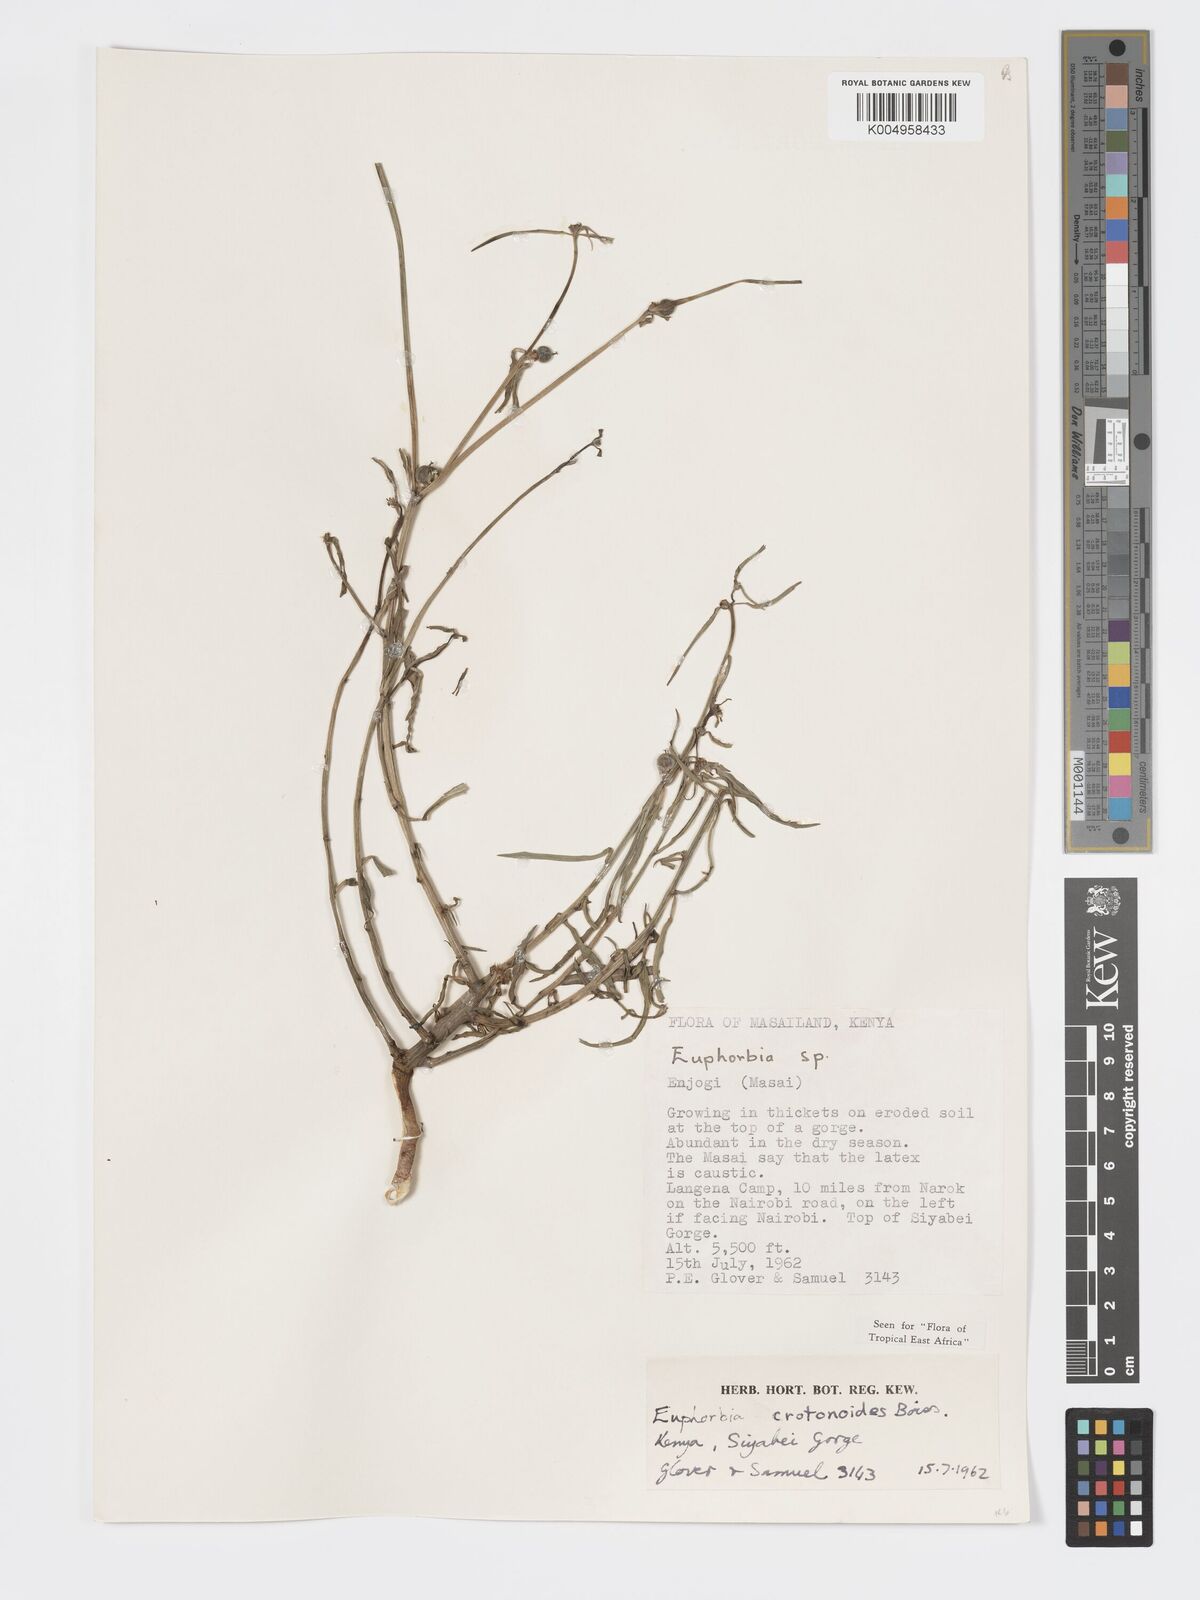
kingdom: Plantae
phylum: Tracheophyta
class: Magnoliopsida
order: Malpighiales
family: Euphorbiaceae
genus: Euphorbia
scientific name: Euphorbia crotonoides
